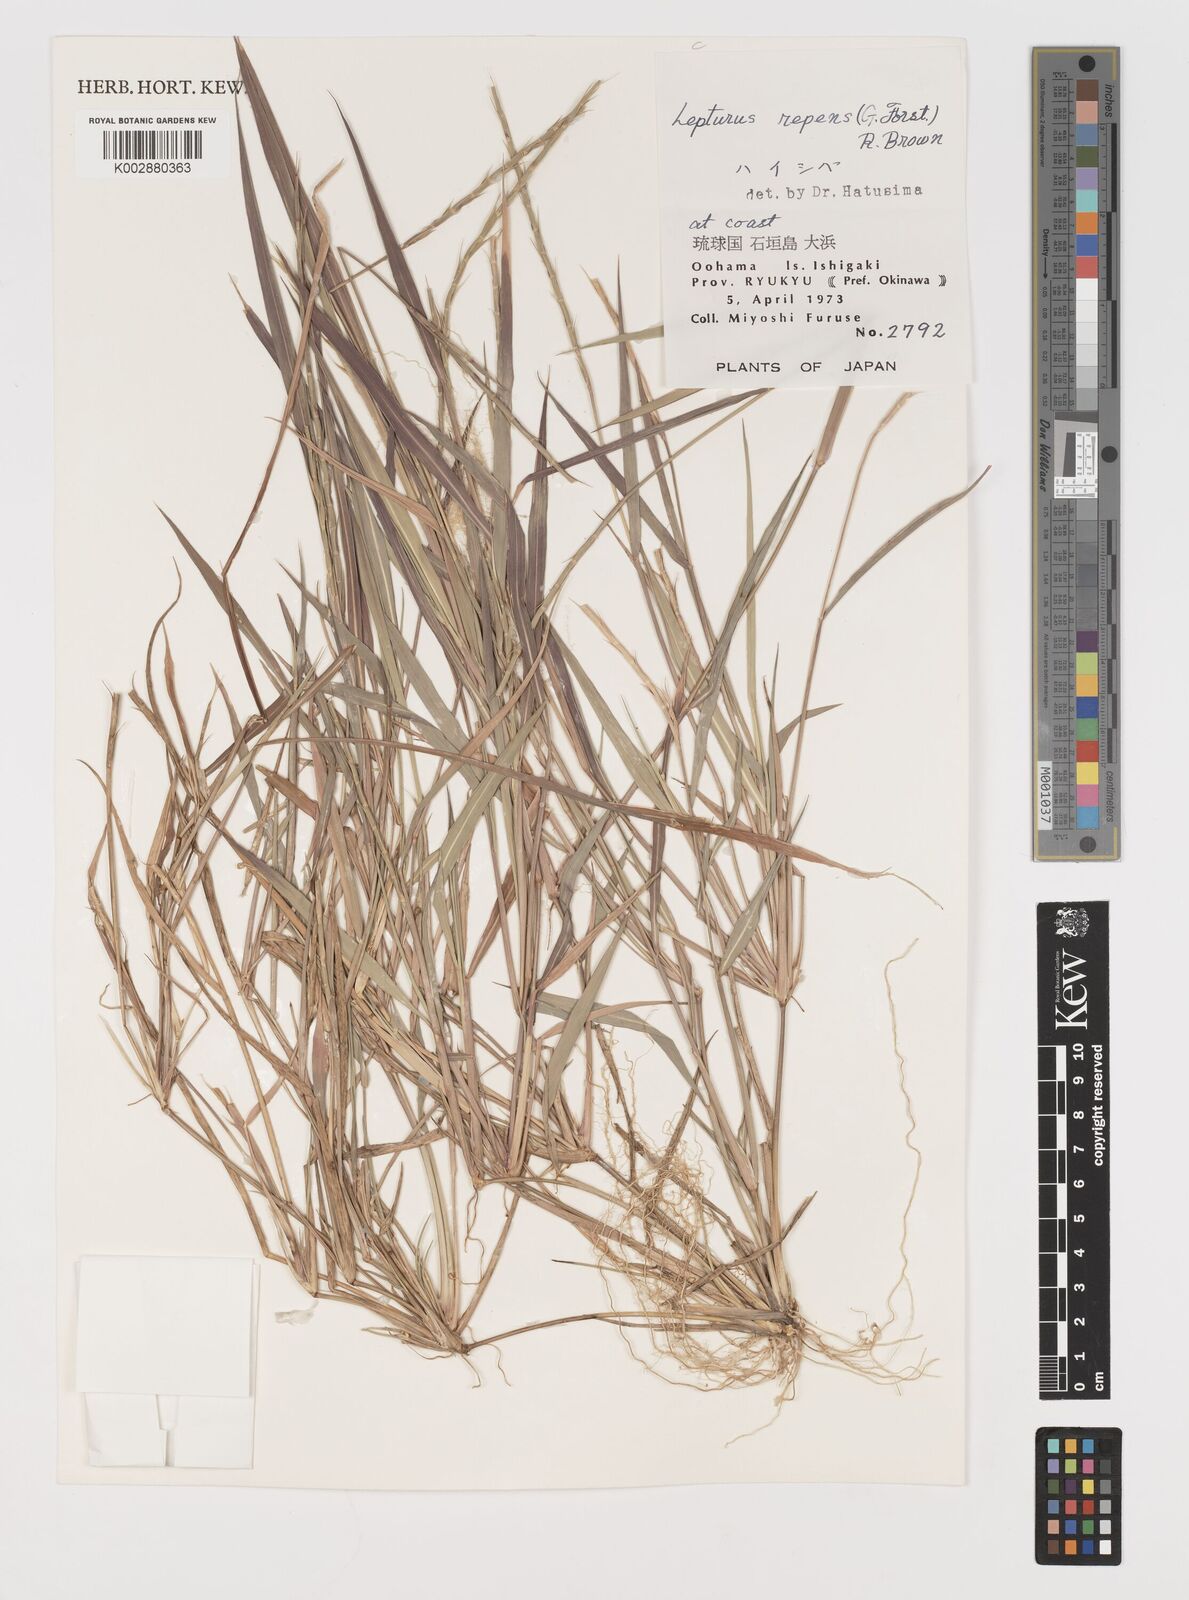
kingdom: Plantae
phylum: Tracheophyta
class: Liliopsida
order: Poales
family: Poaceae
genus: Lepturus
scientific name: Lepturus repens
